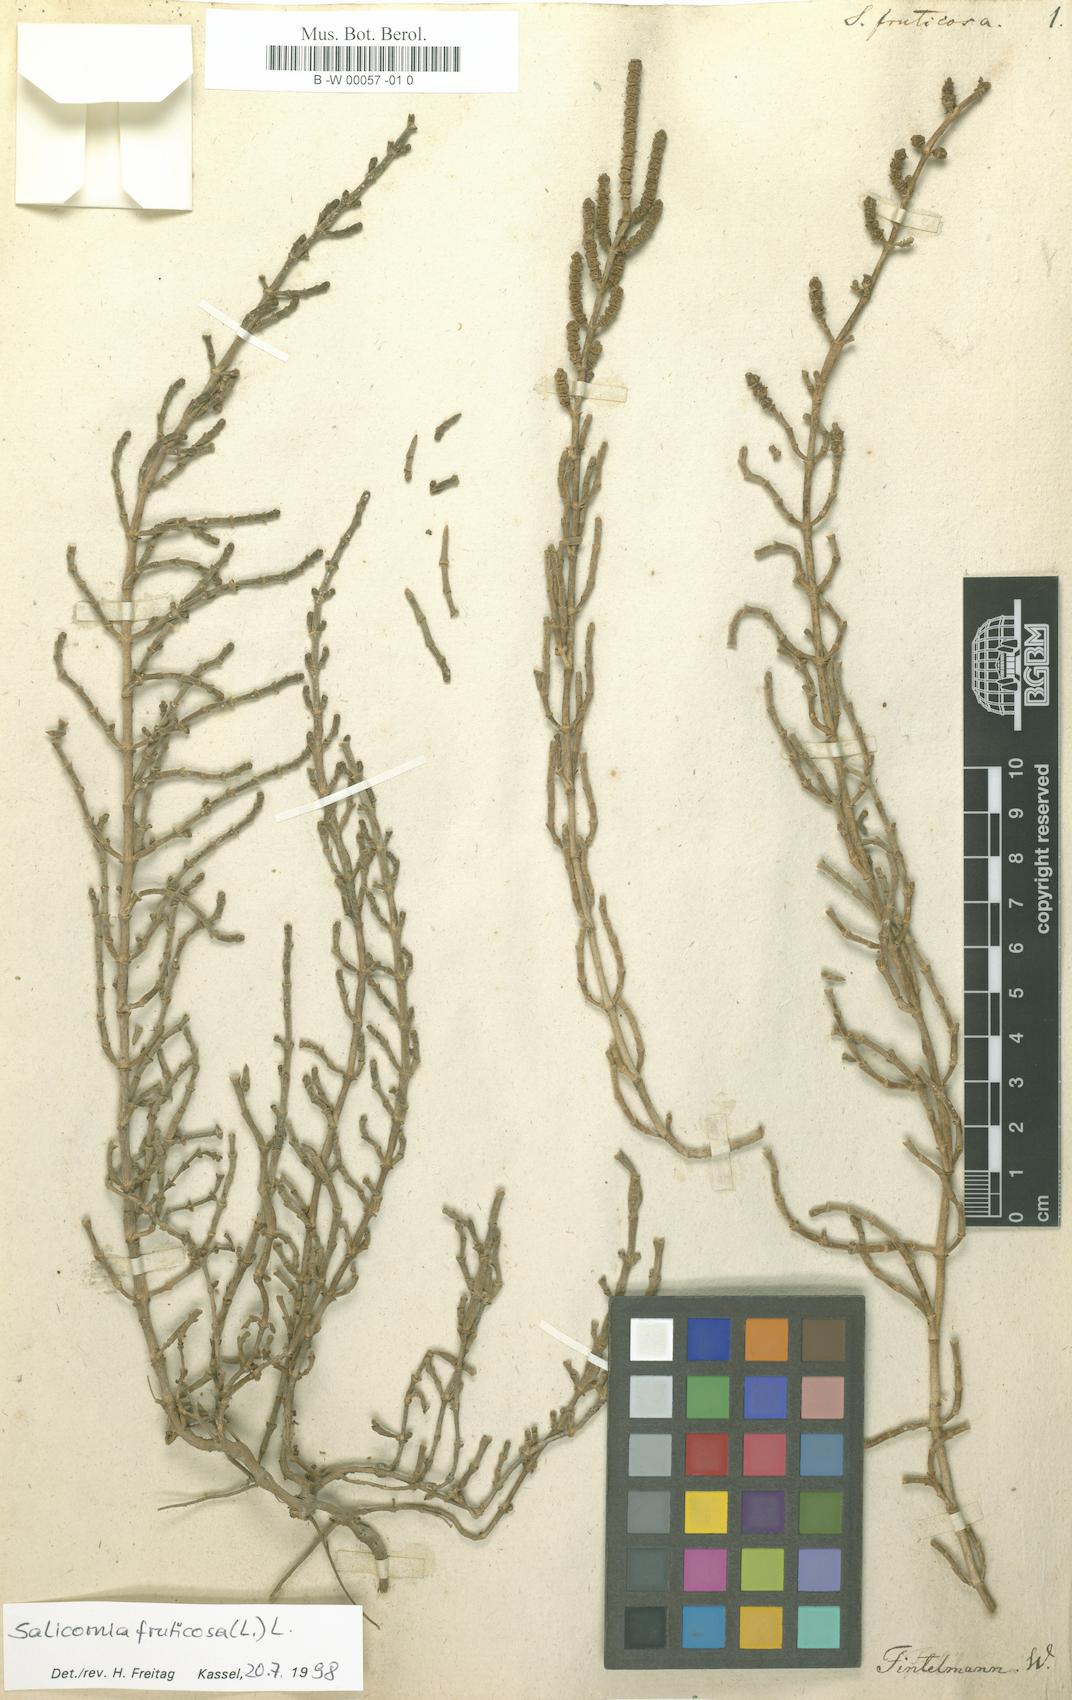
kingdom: Plantae
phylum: Tracheophyta
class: Magnoliopsida
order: Caryophyllales
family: Amaranthaceae
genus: Salicornia
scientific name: Salicornia fruticosa
